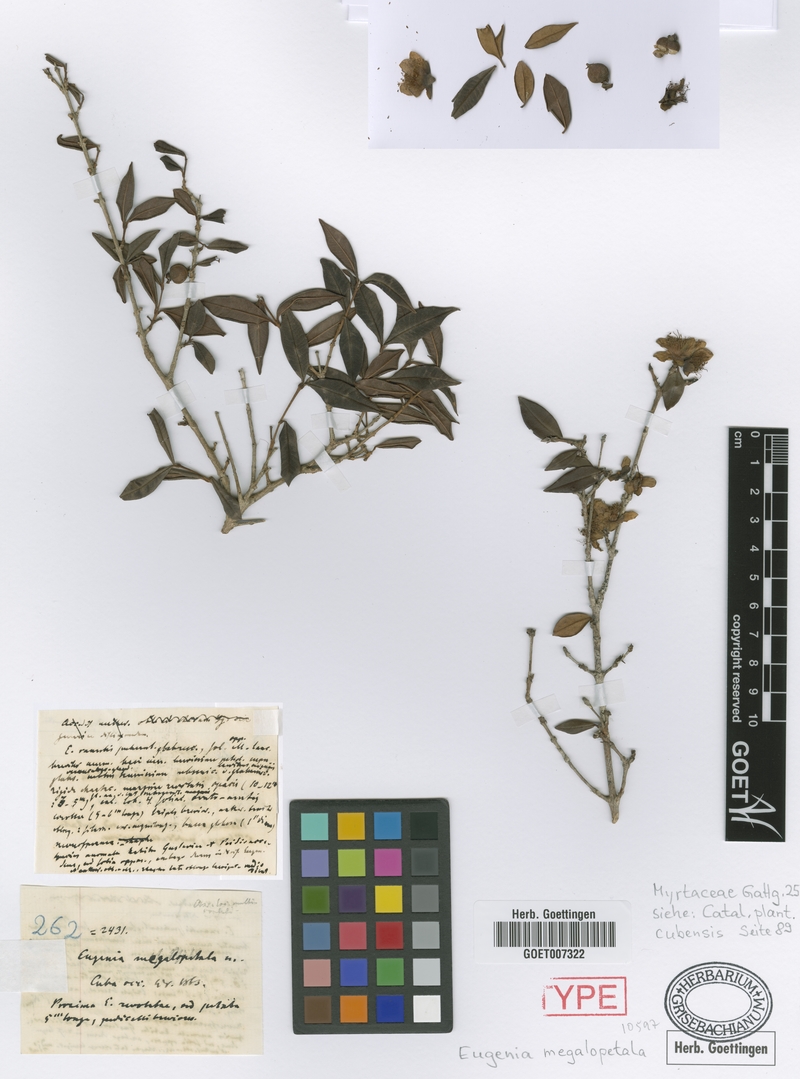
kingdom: Plantae
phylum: Tracheophyta
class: Magnoliopsida
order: Myrtales
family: Myrtaceae
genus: Eugenia
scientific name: Eugenia megalopetala
